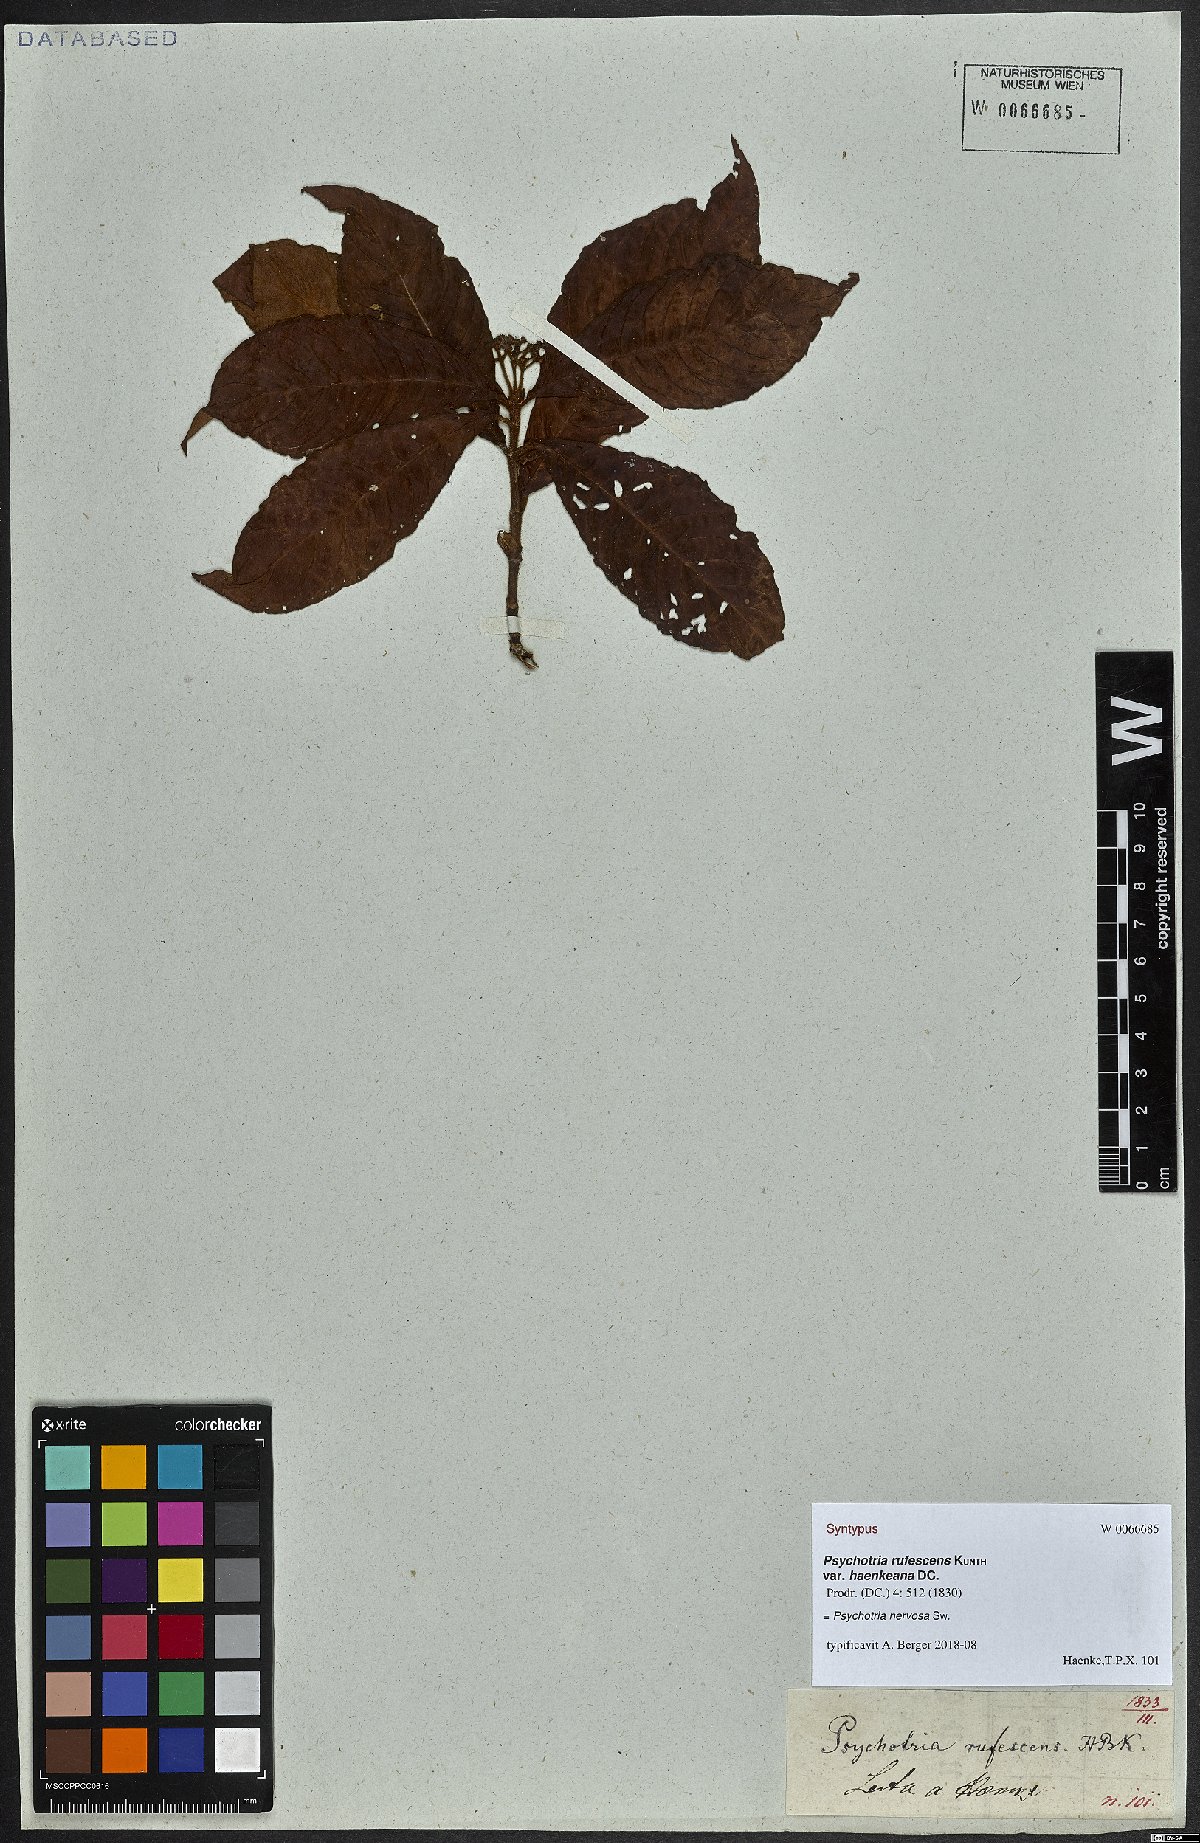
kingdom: Plantae
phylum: Tracheophyta
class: Magnoliopsida
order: Gentianales
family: Rubiaceae
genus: Psychotria
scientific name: Psychotria nervosa
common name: Bastard cankerberry
